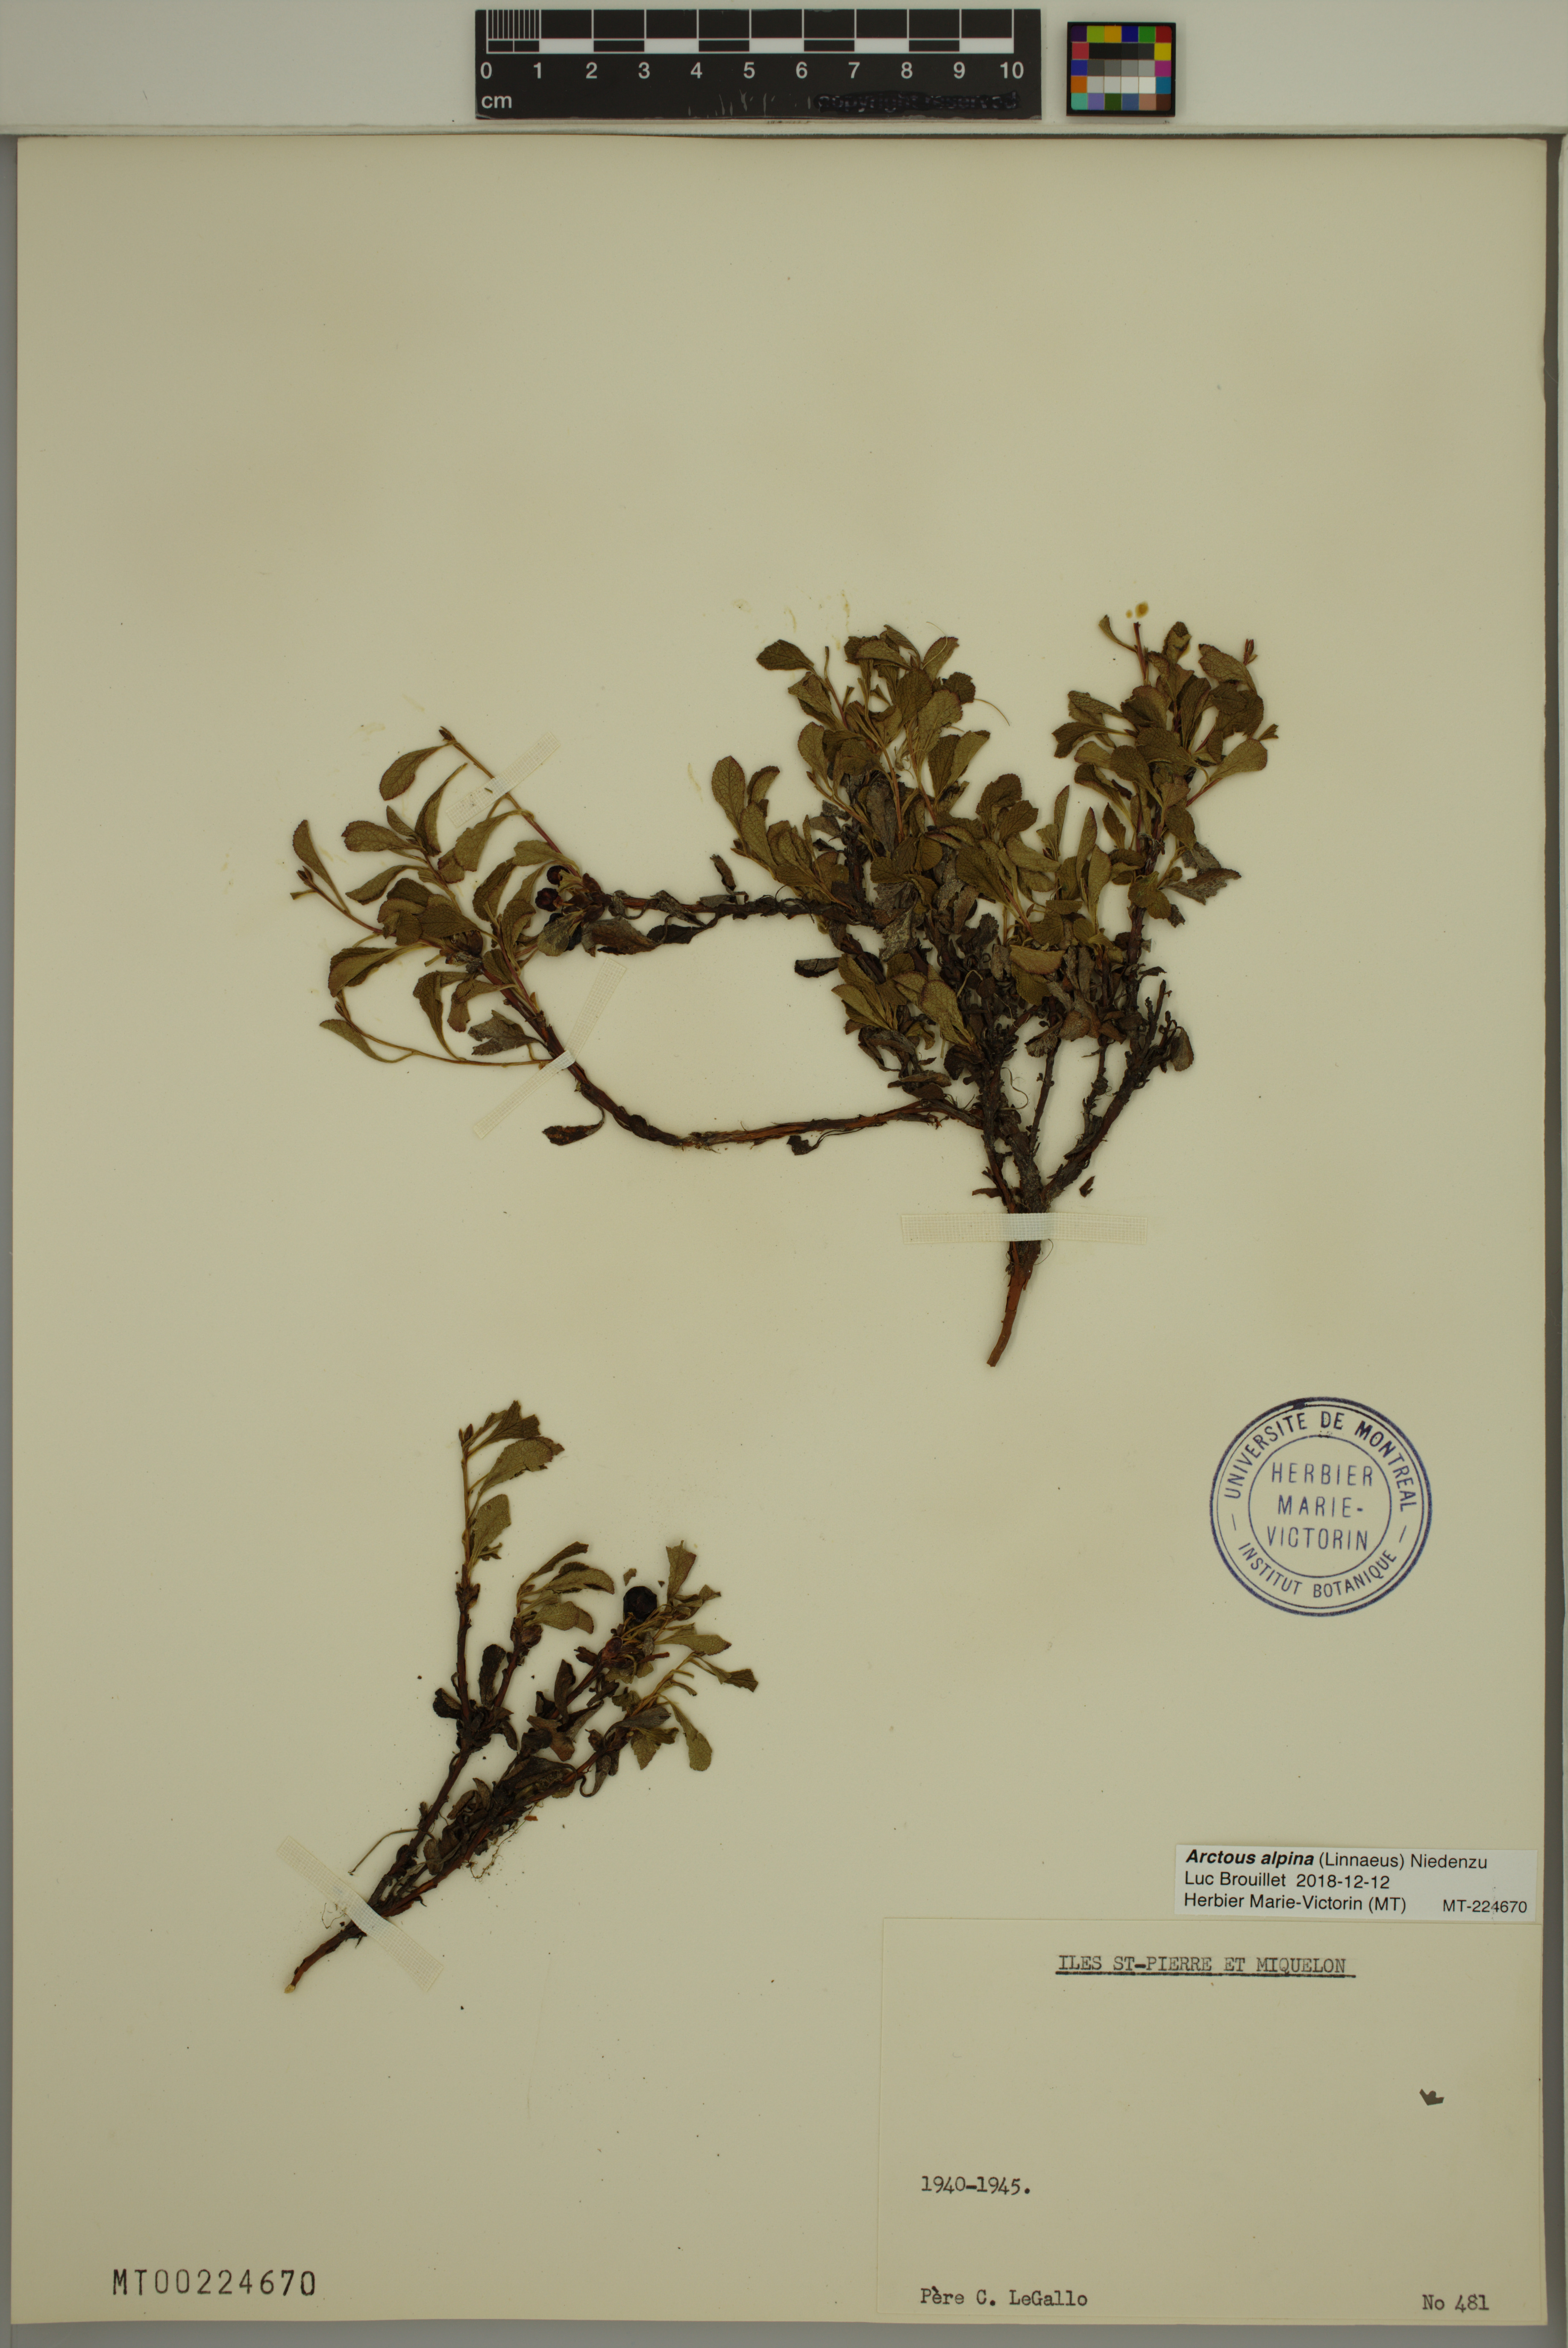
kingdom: Plantae
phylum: Tracheophyta
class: Magnoliopsida
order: Ericales
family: Ericaceae
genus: Arctostaphylos
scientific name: Arctostaphylos alpinus
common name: Alpine bearberry
